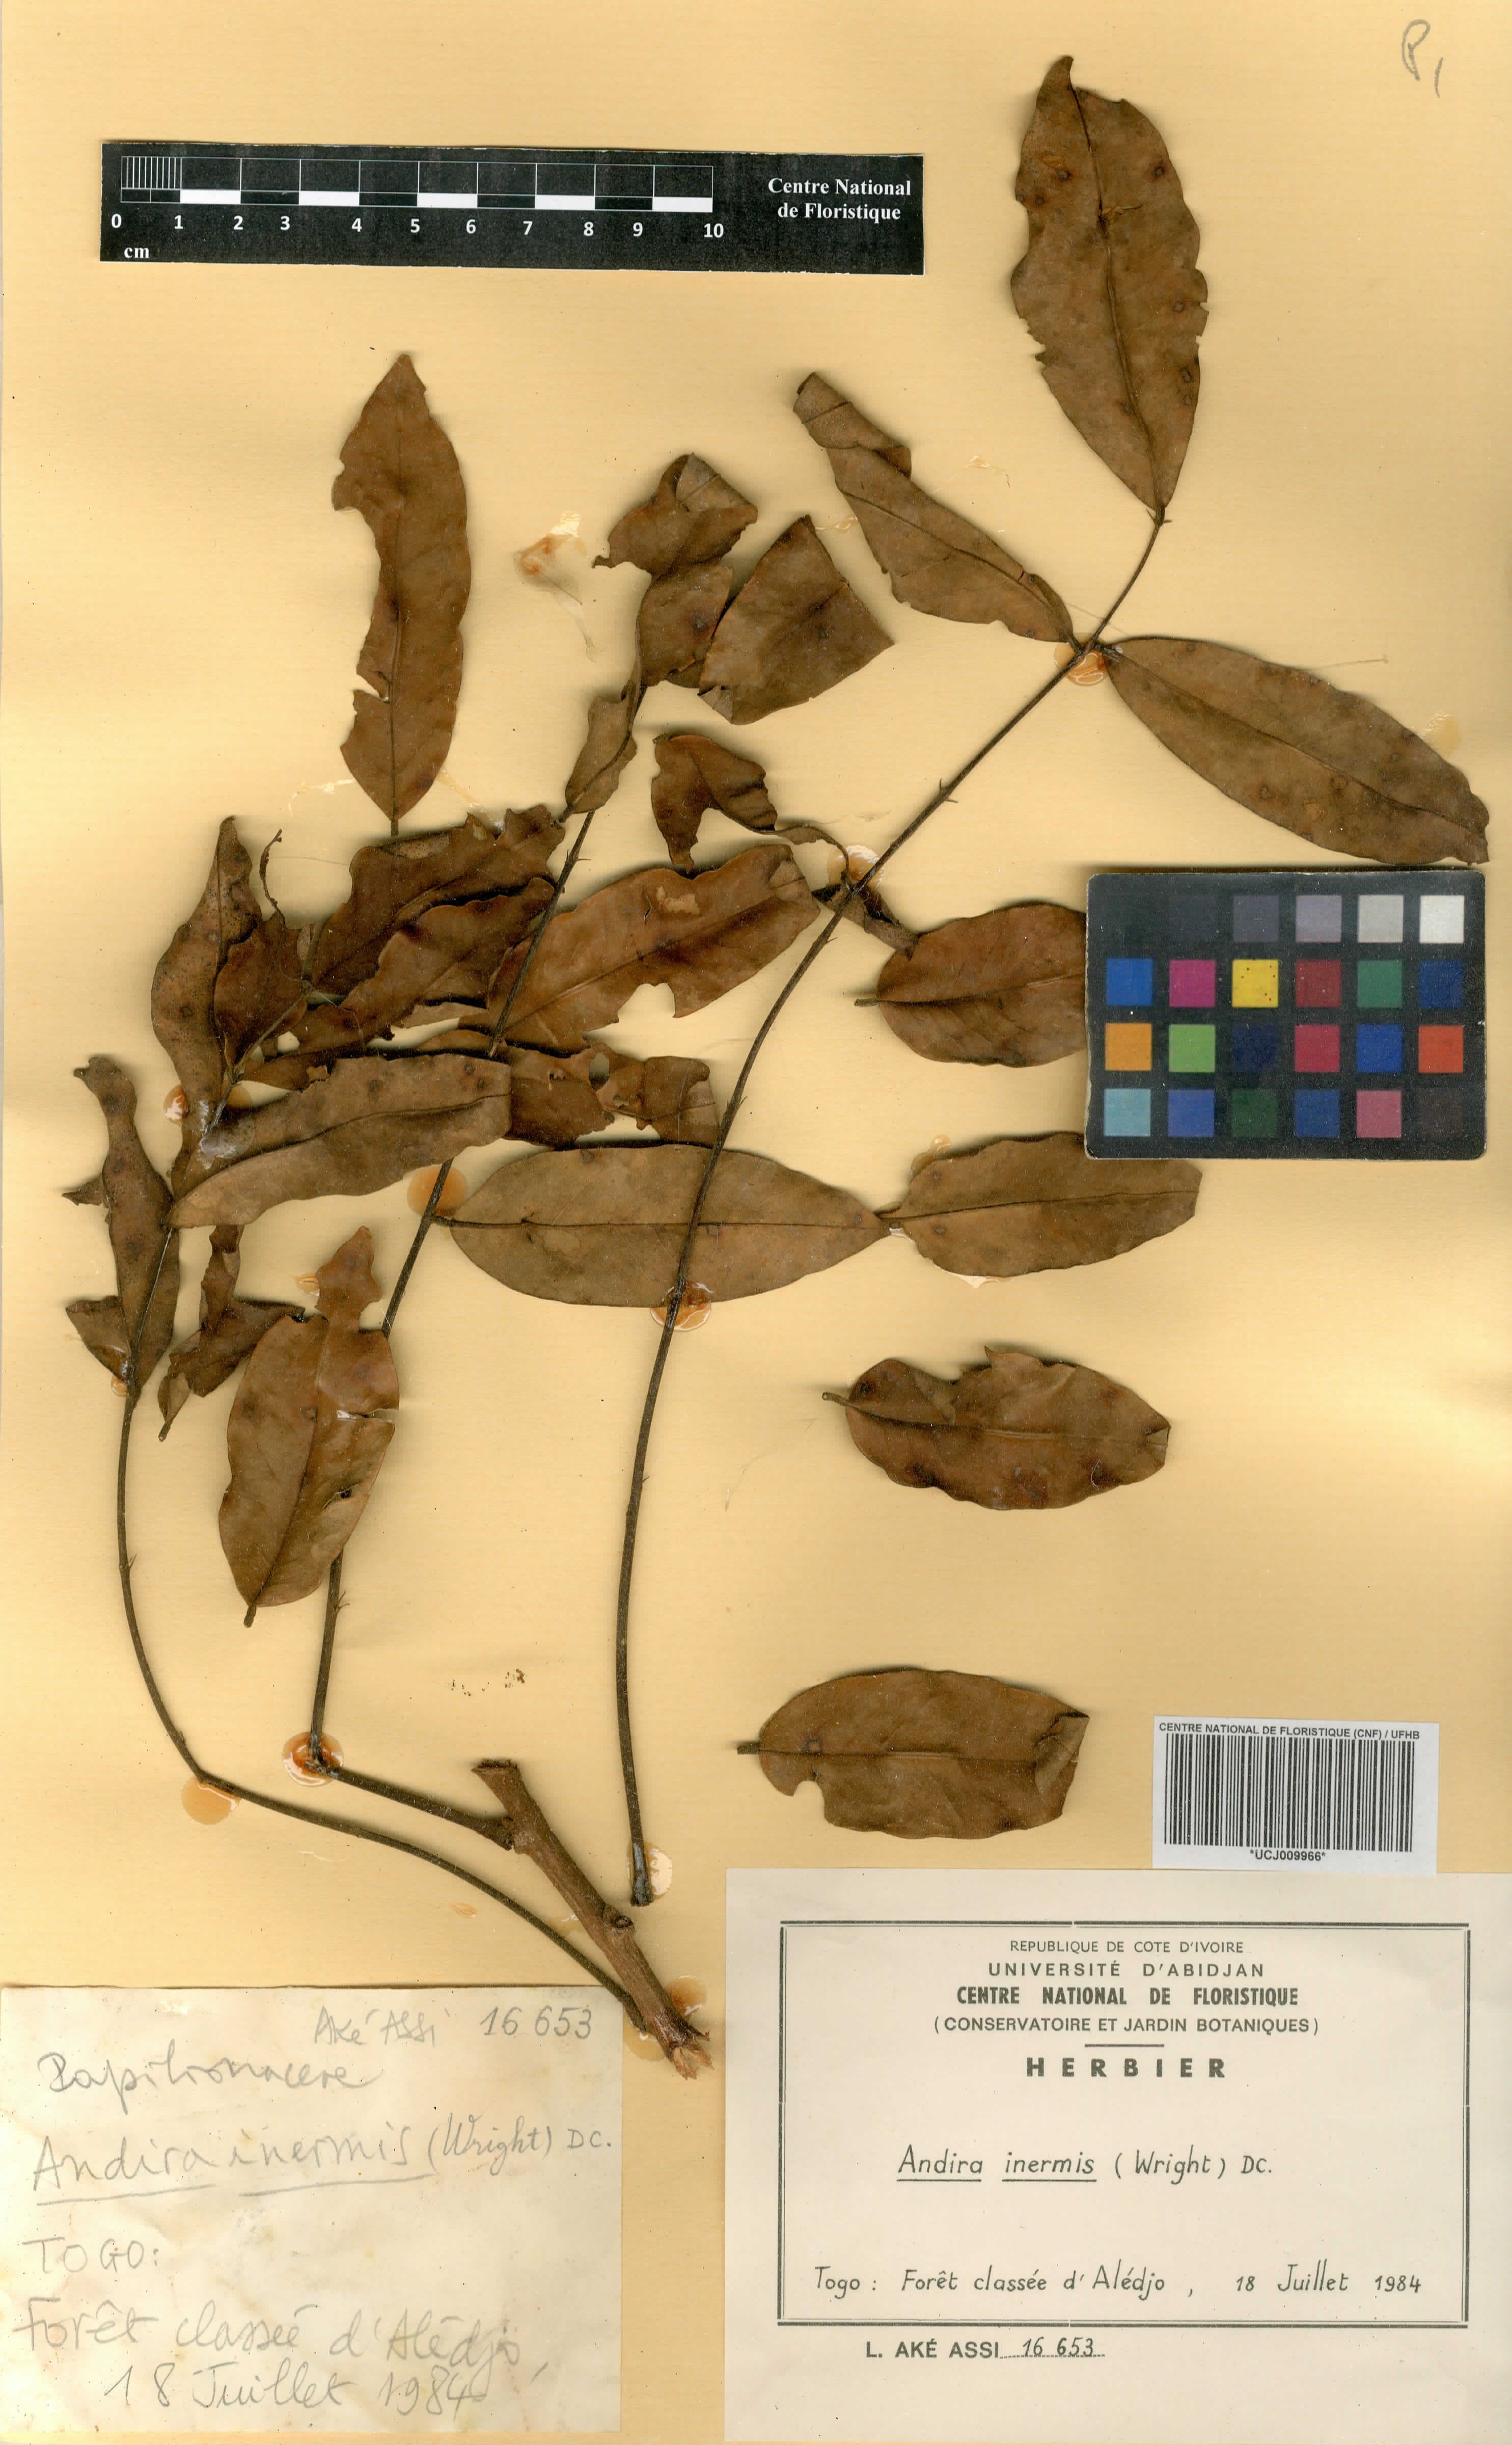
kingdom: Plantae
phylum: Tracheophyta
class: Magnoliopsida
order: Fabales
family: Fabaceae
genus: Andira
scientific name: Andira inermis
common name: Angelin
